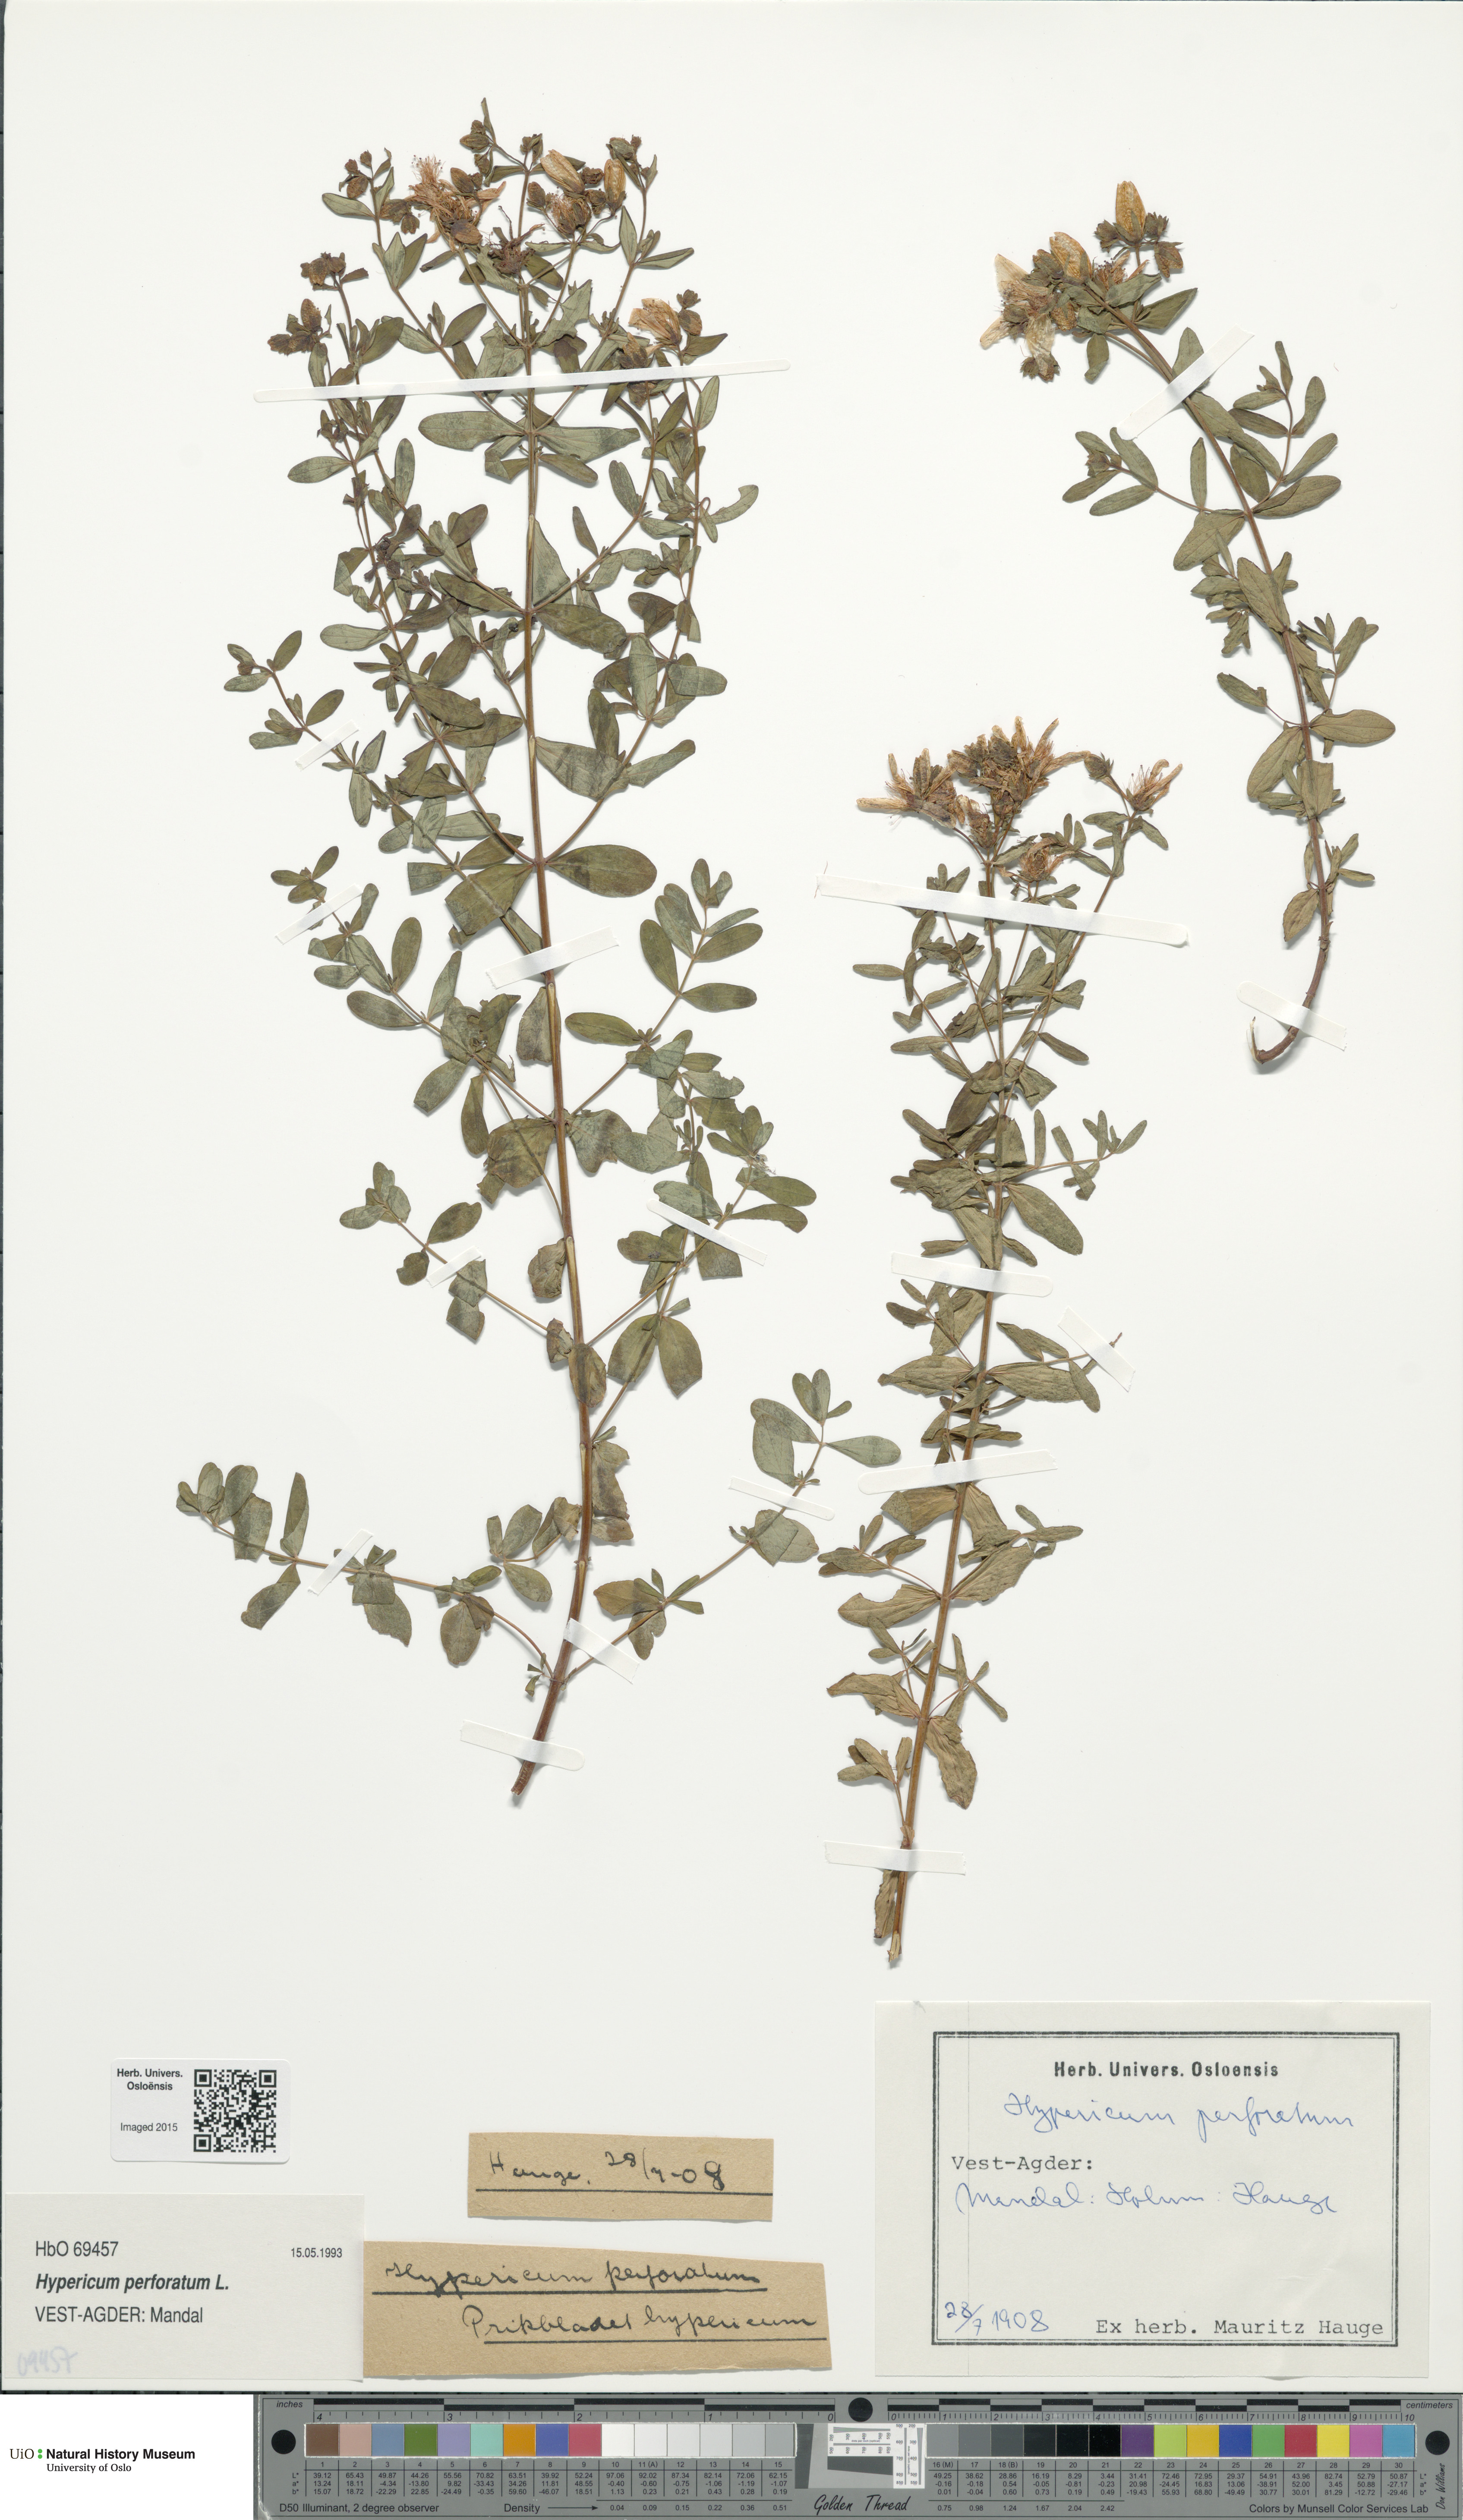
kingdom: Plantae
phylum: Tracheophyta
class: Magnoliopsida
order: Malpighiales
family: Hypericaceae
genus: Hypericum
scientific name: Hypericum perforatum
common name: Common st. johnswort
